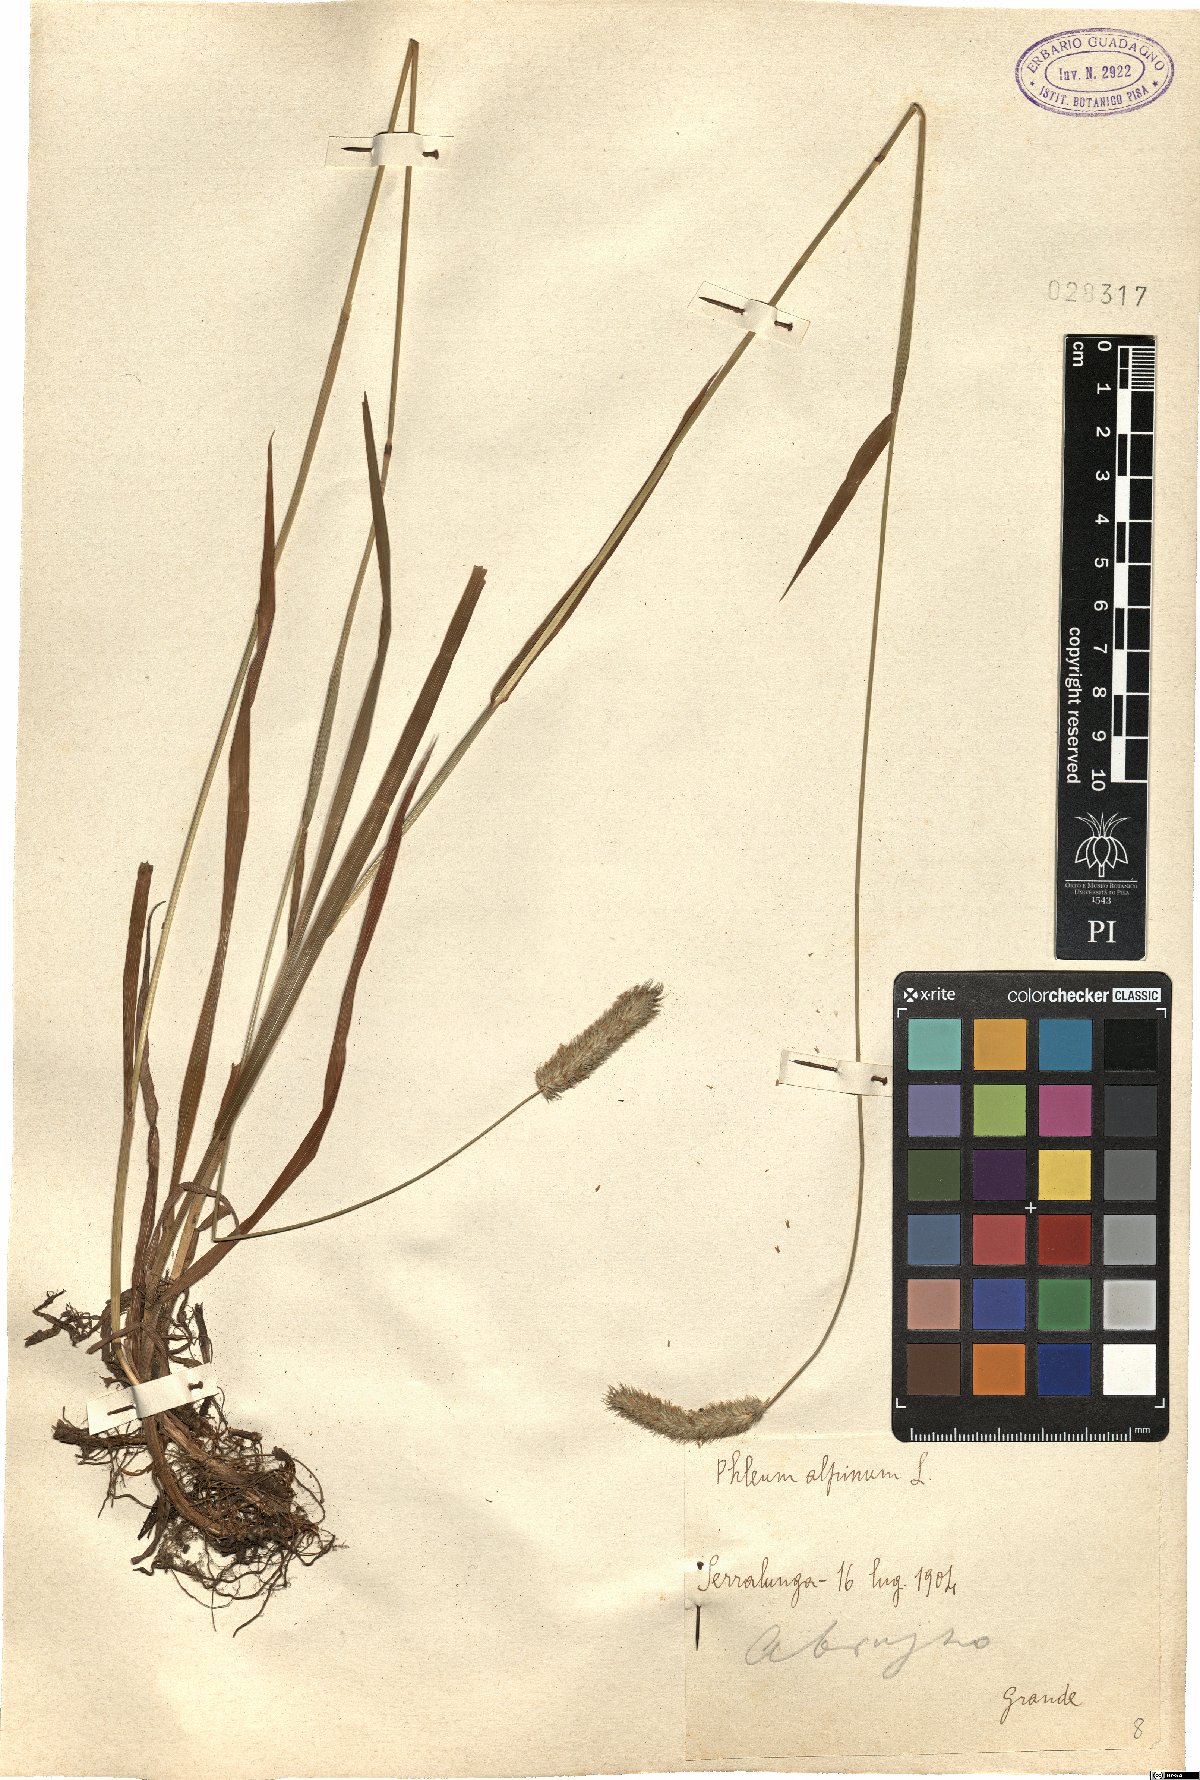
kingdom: Plantae
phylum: Tracheophyta
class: Liliopsida
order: Poales
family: Poaceae
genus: Phleum
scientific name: Phleum alpinum
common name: Alpine cat's-tail
